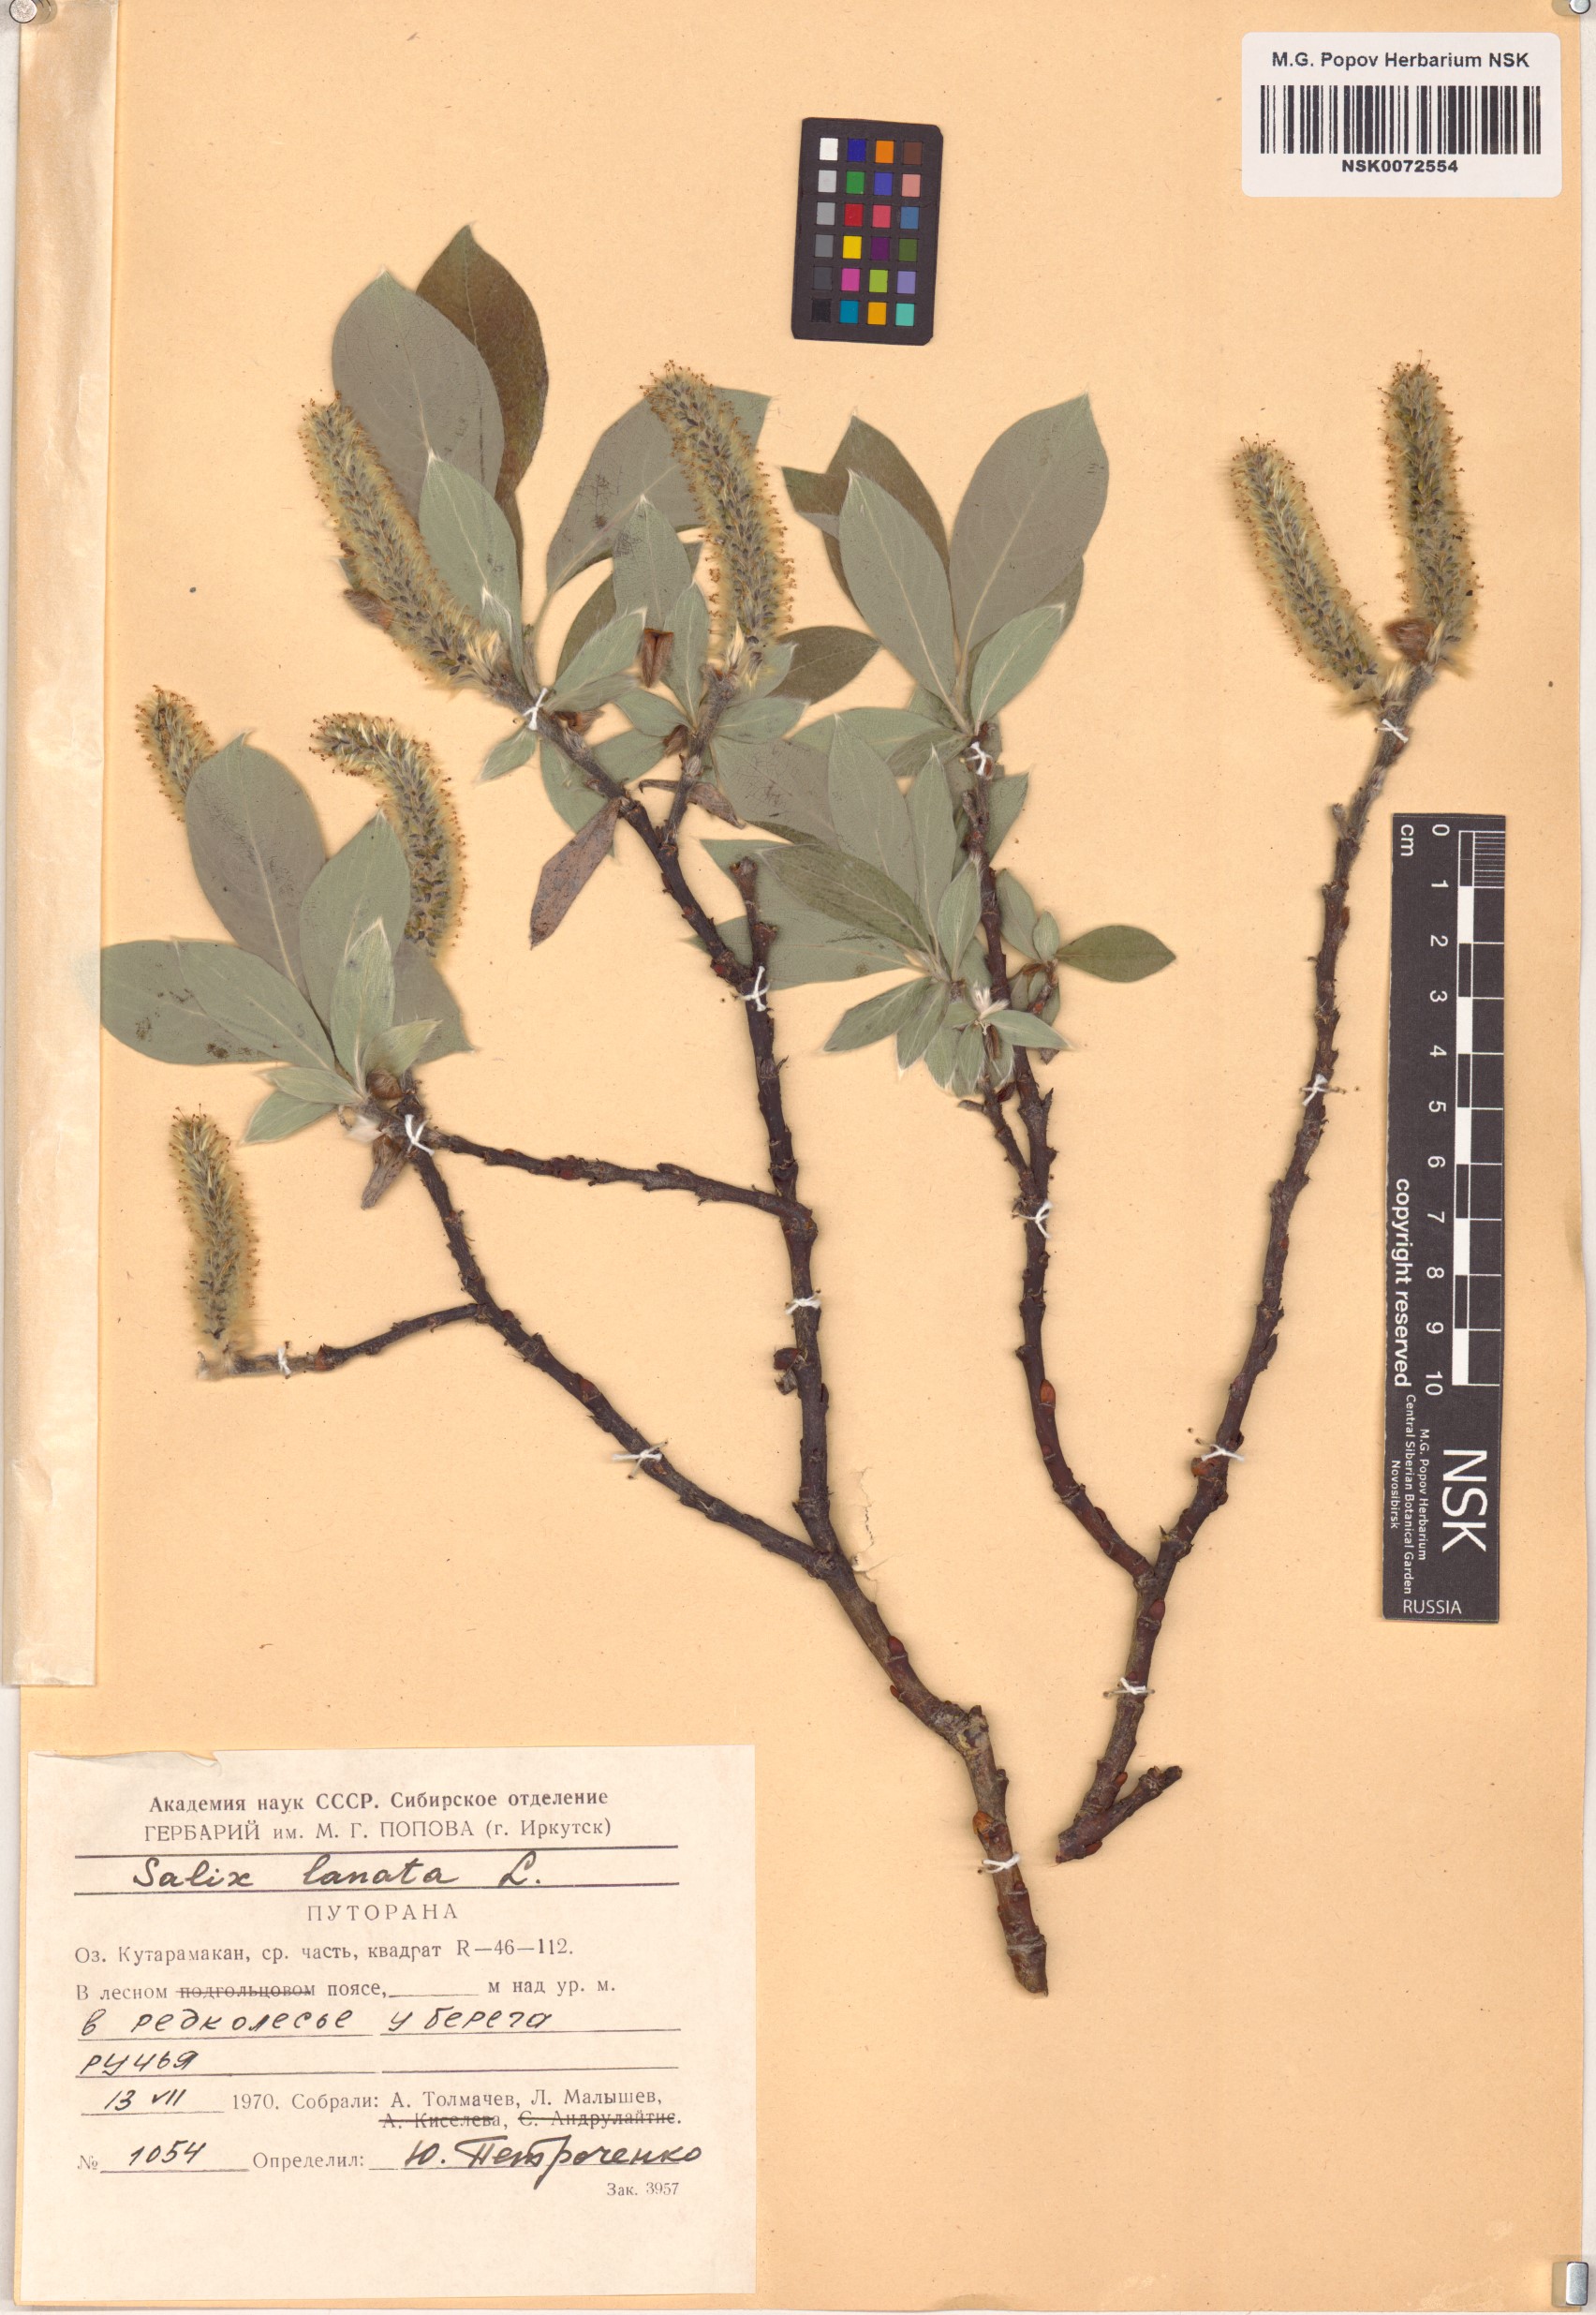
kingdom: Plantae
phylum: Tracheophyta
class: Magnoliopsida
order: Malpighiales
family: Salicaceae
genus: Salix
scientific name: Salix lanata
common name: Woolly willow
